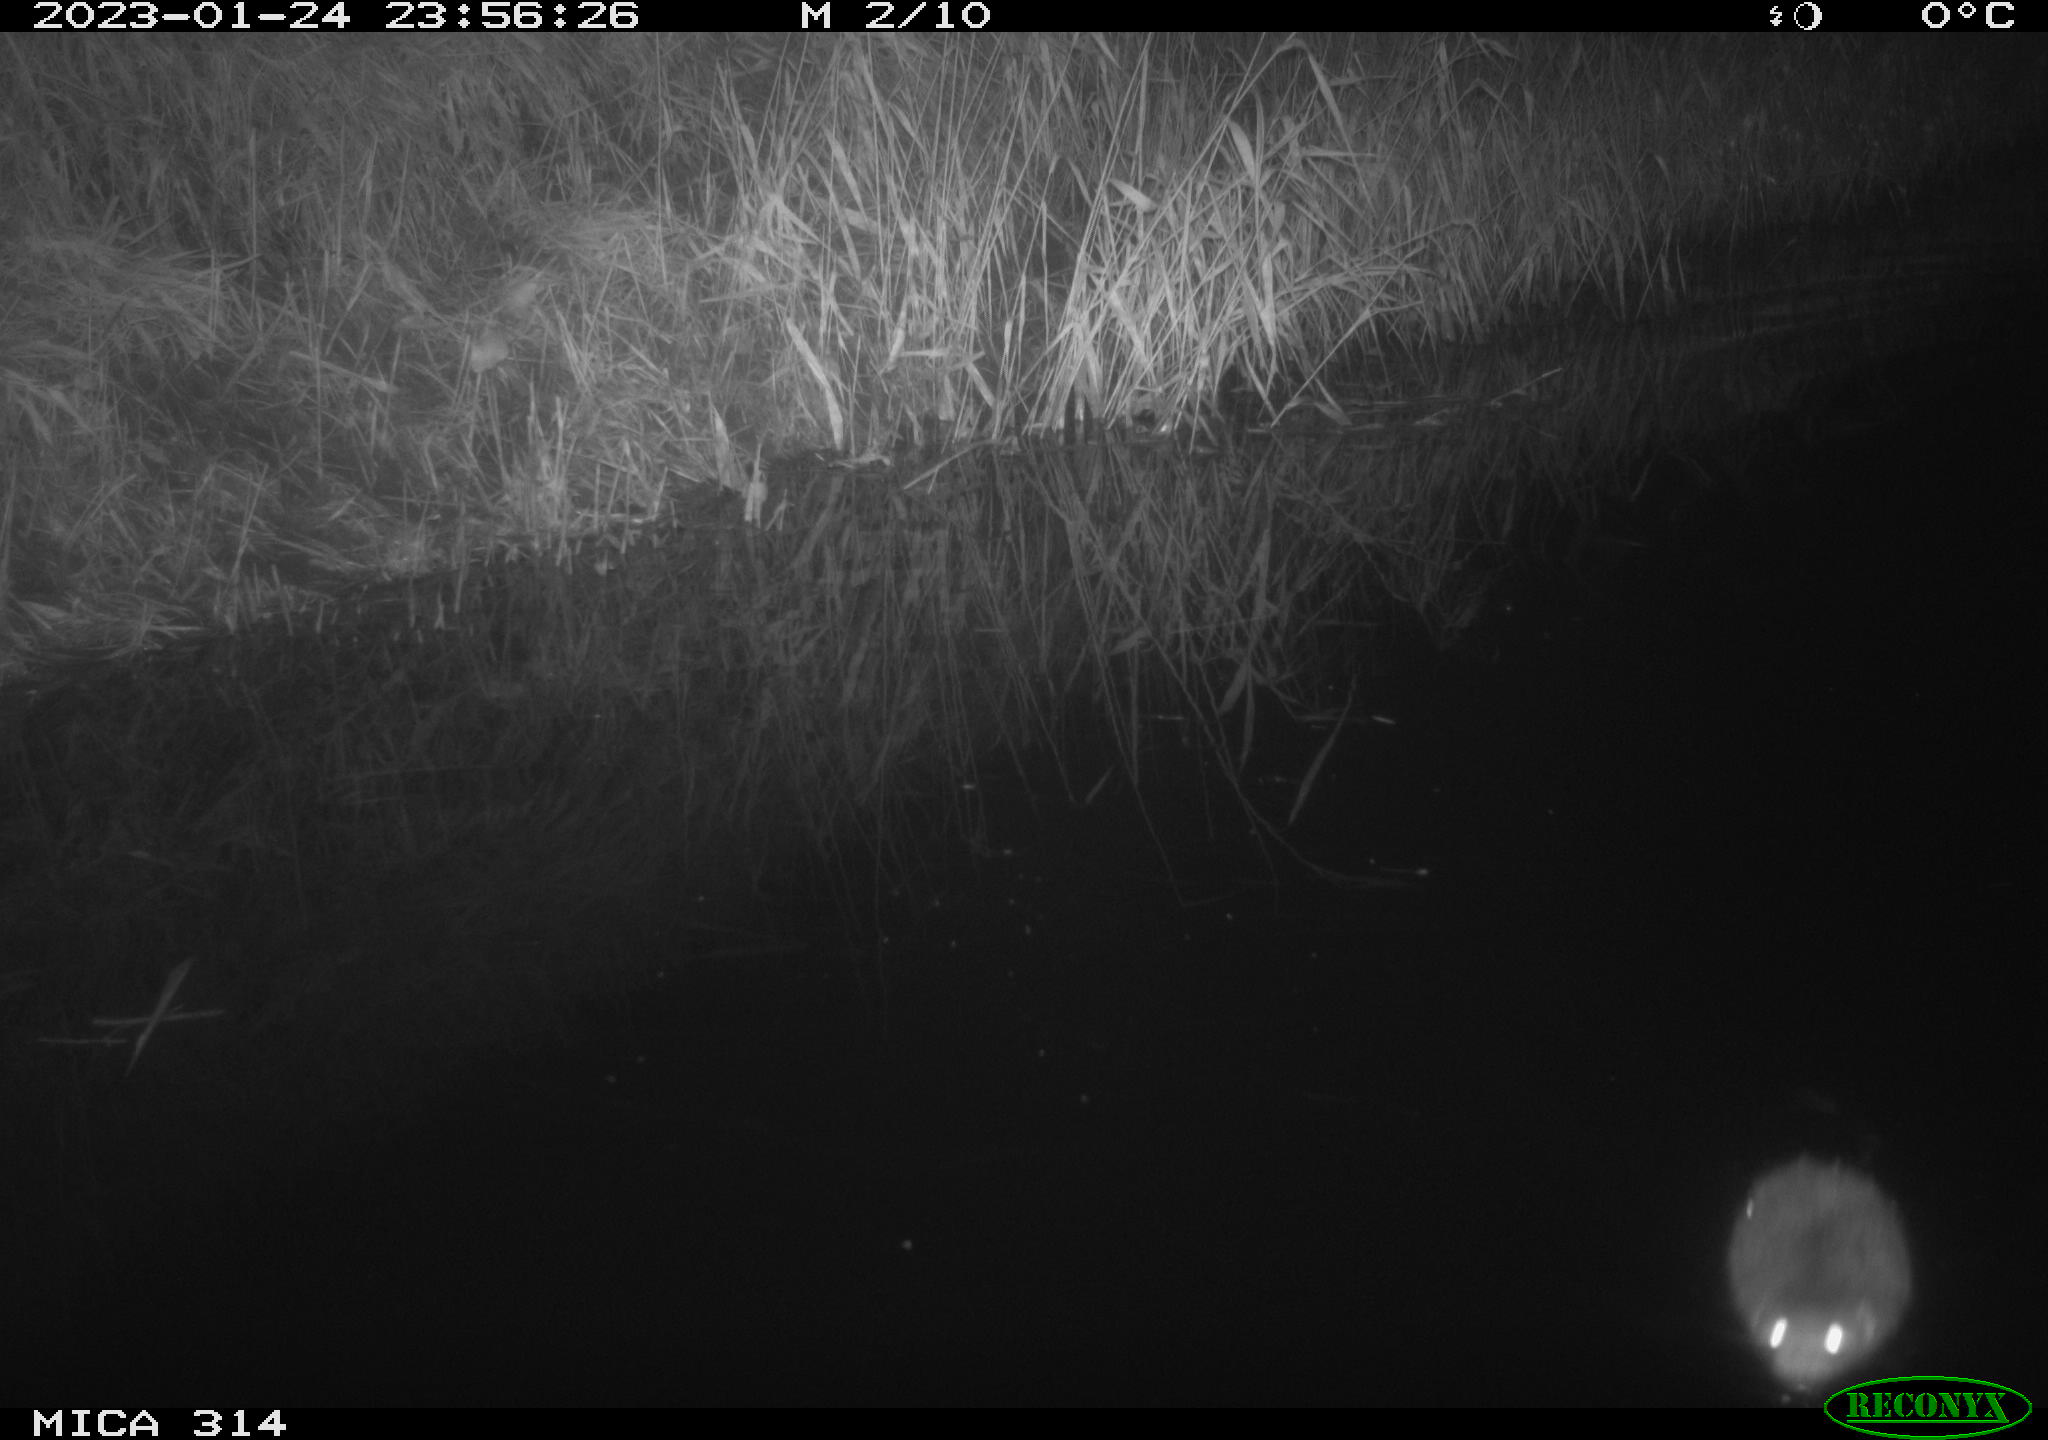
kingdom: Animalia
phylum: Chordata
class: Mammalia
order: Rodentia
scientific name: Rodentia
